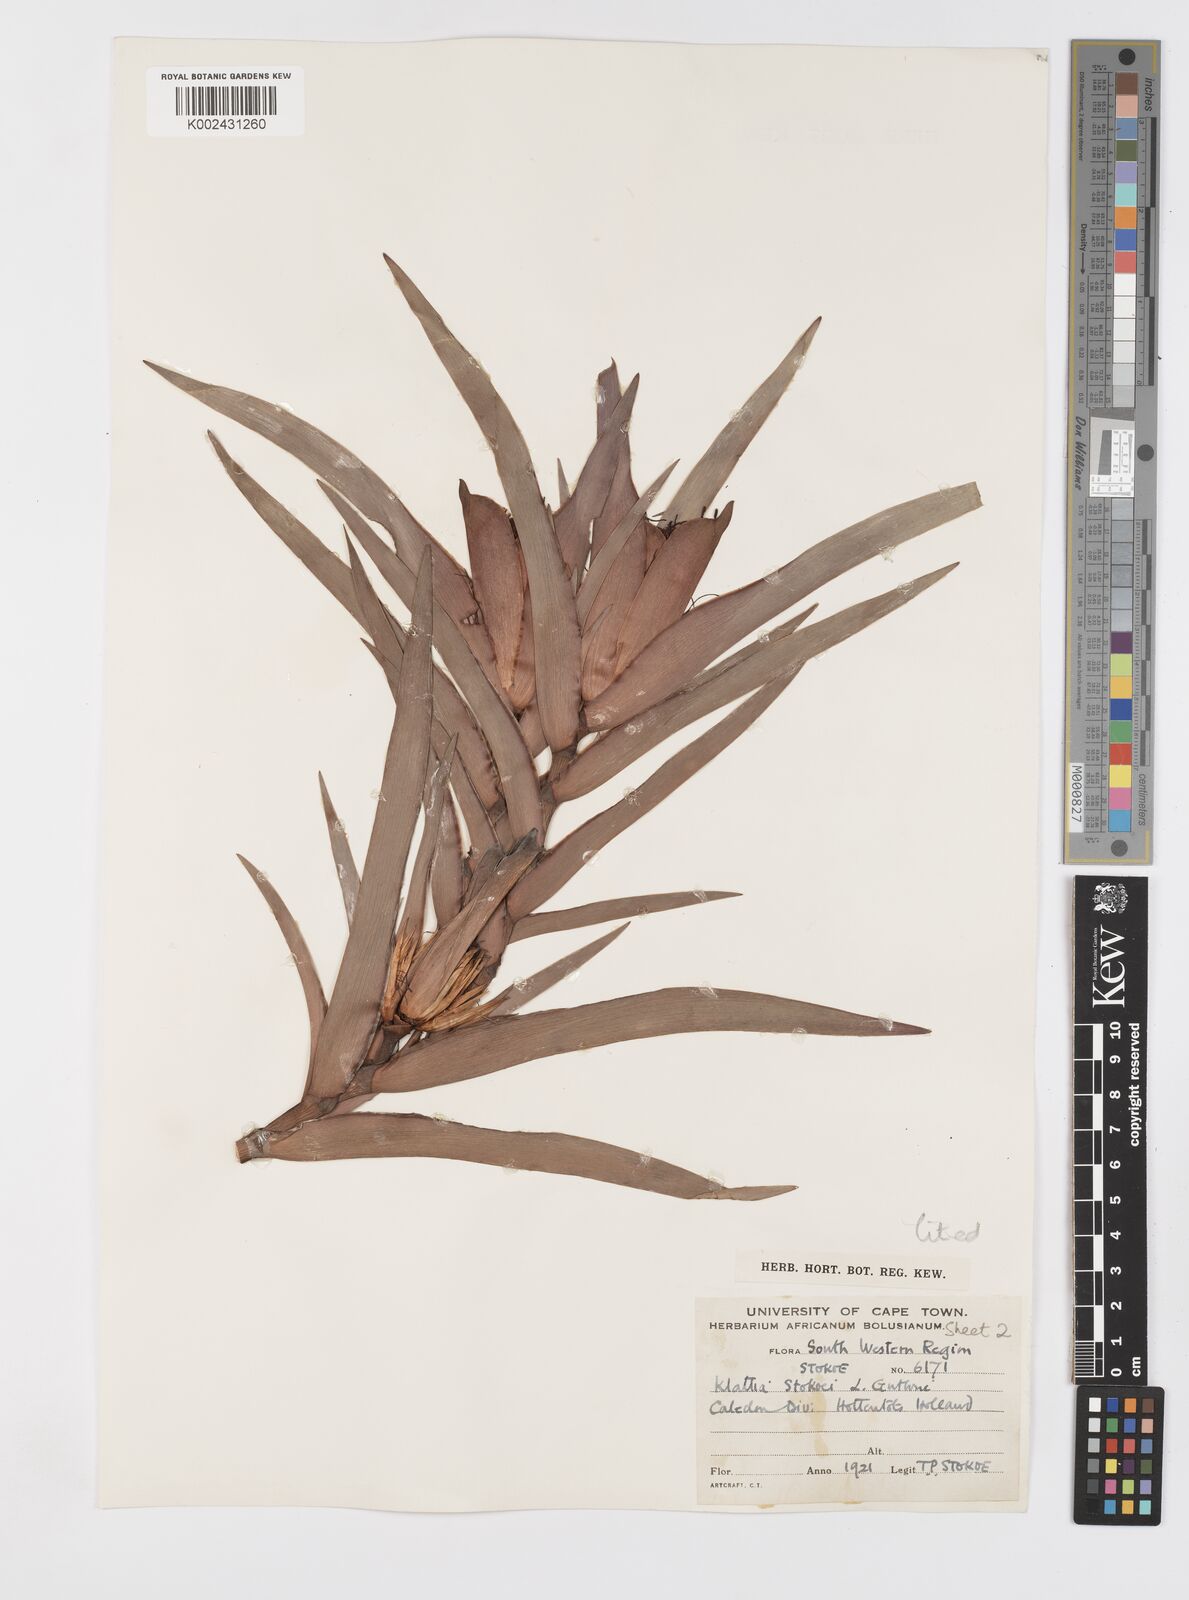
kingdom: Plantae
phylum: Tracheophyta
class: Liliopsida
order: Asparagales
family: Iridaceae
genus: Klattia
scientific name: Klattia stokoei
